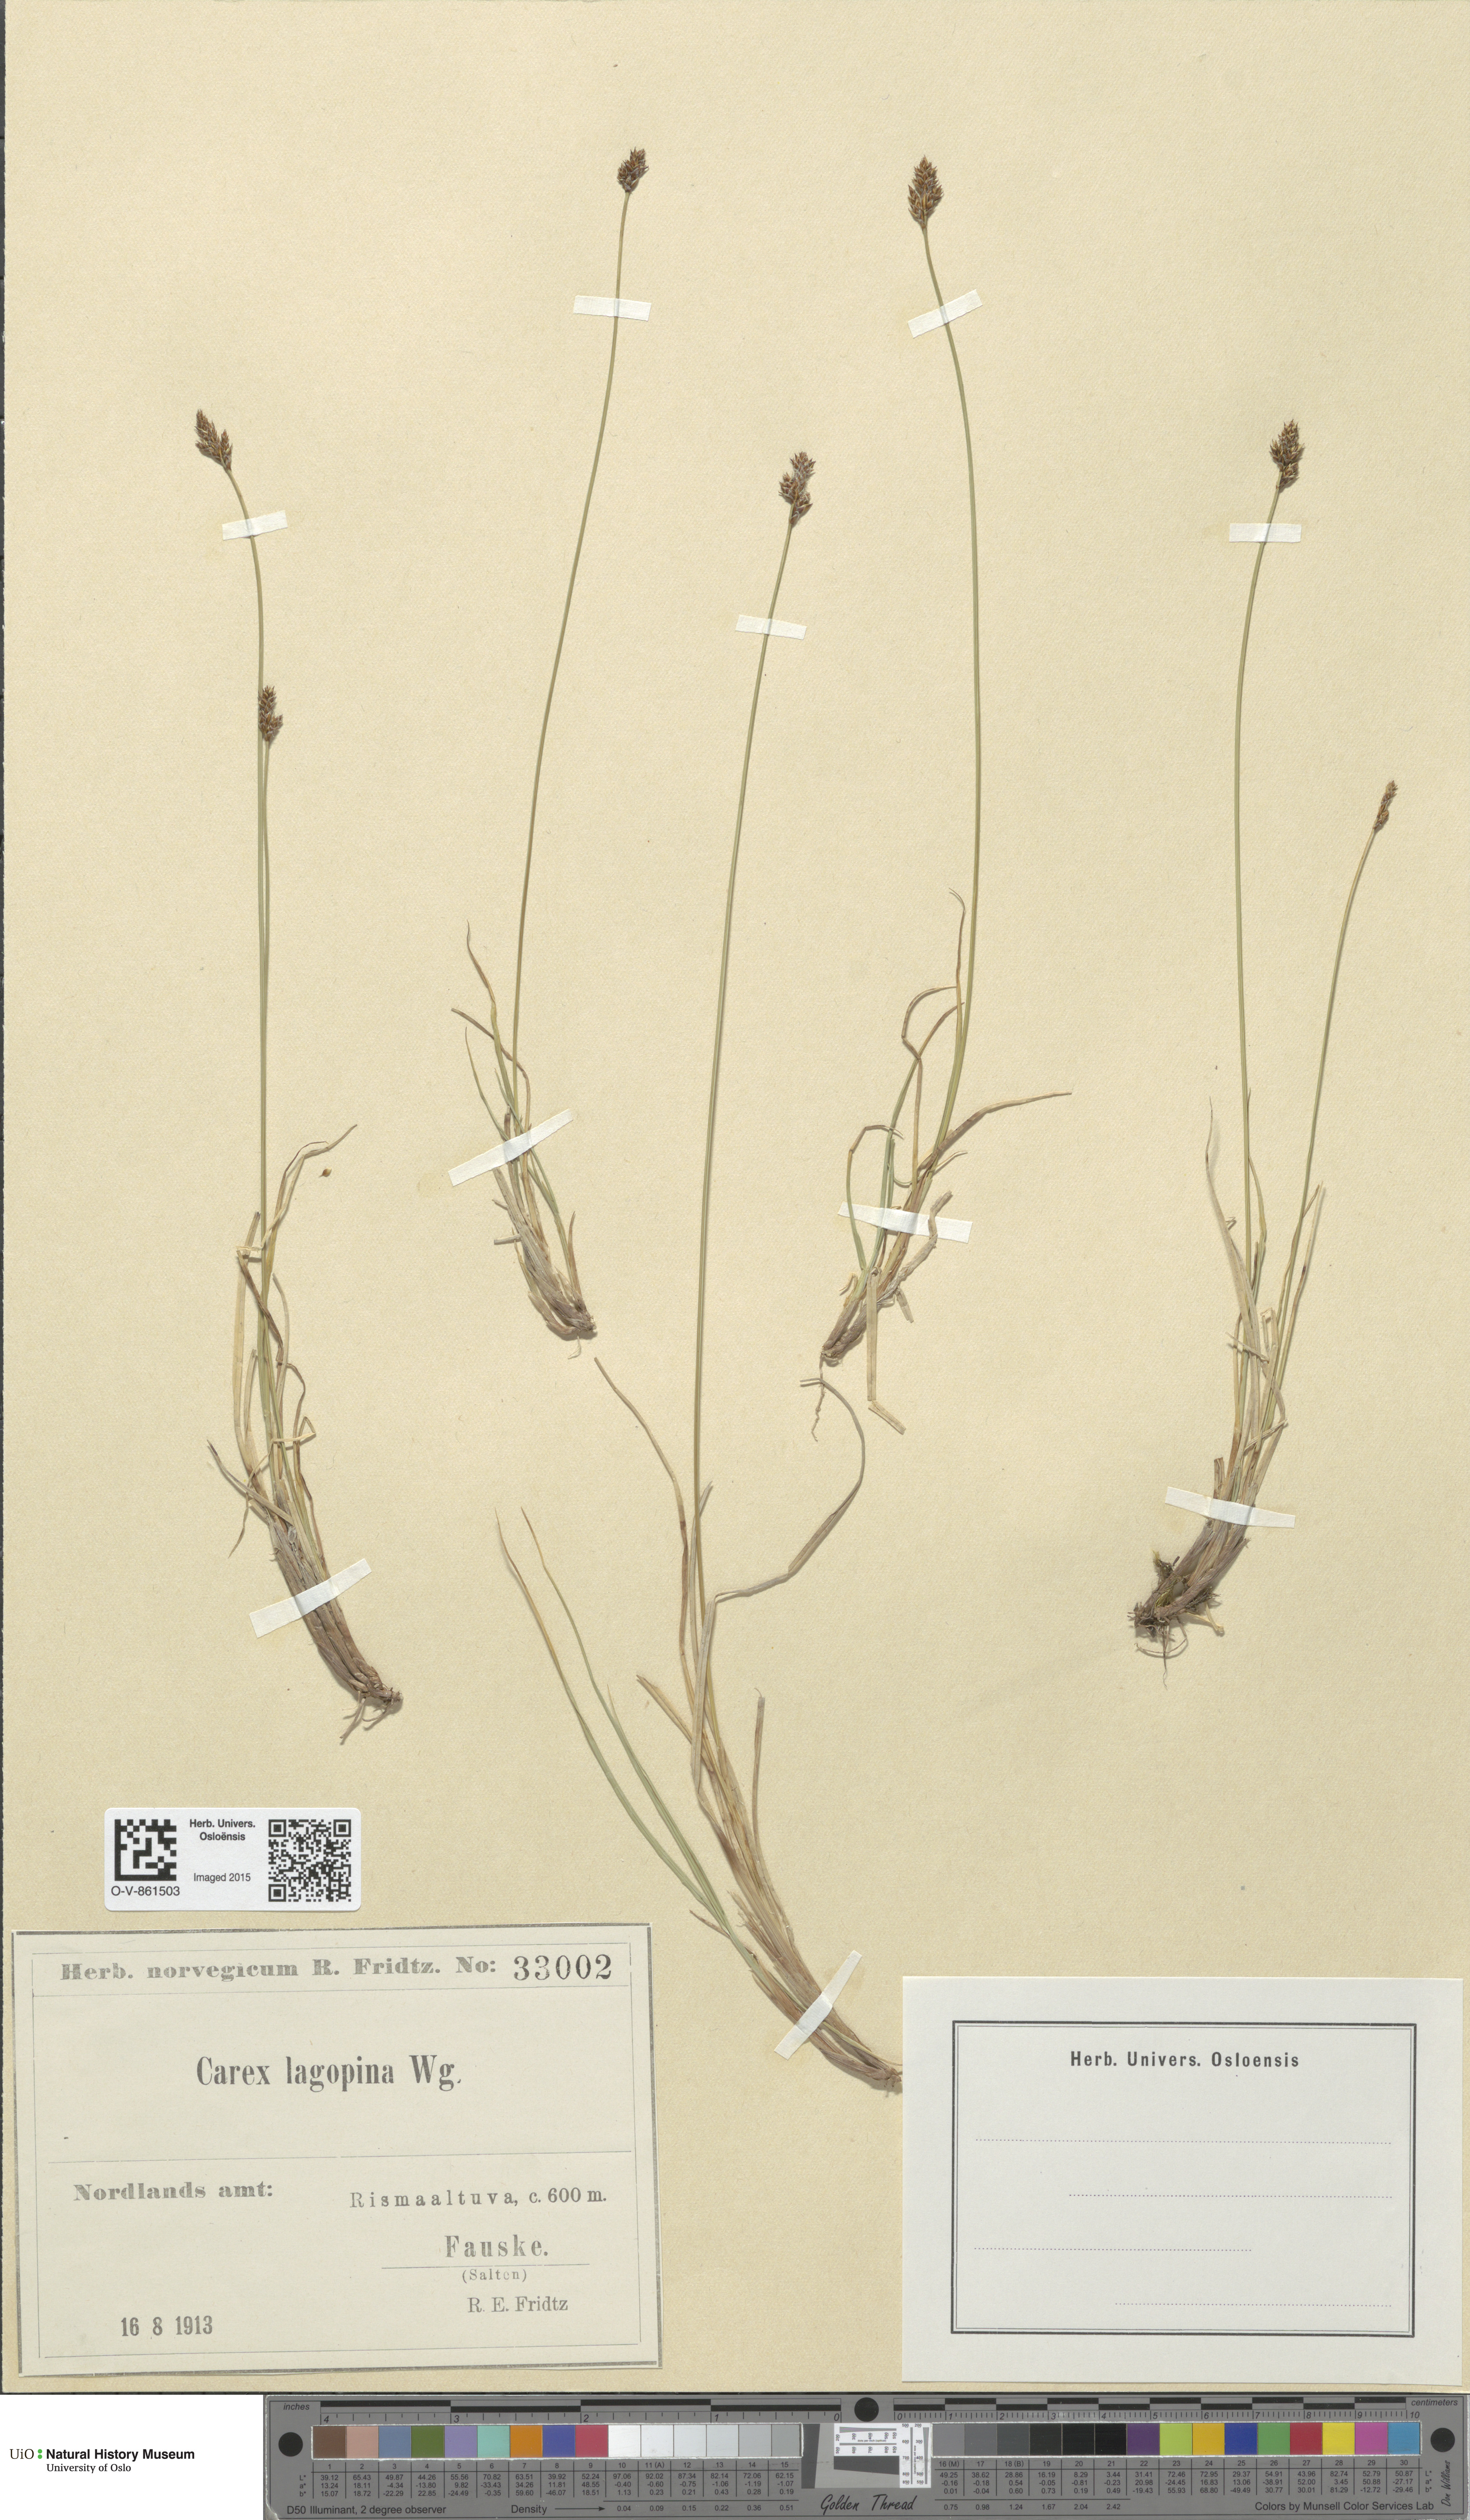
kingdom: Plantae
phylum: Tracheophyta
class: Liliopsida
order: Poales
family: Cyperaceae
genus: Carex
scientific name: Carex lachenalii
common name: Hare's-foot sedge
